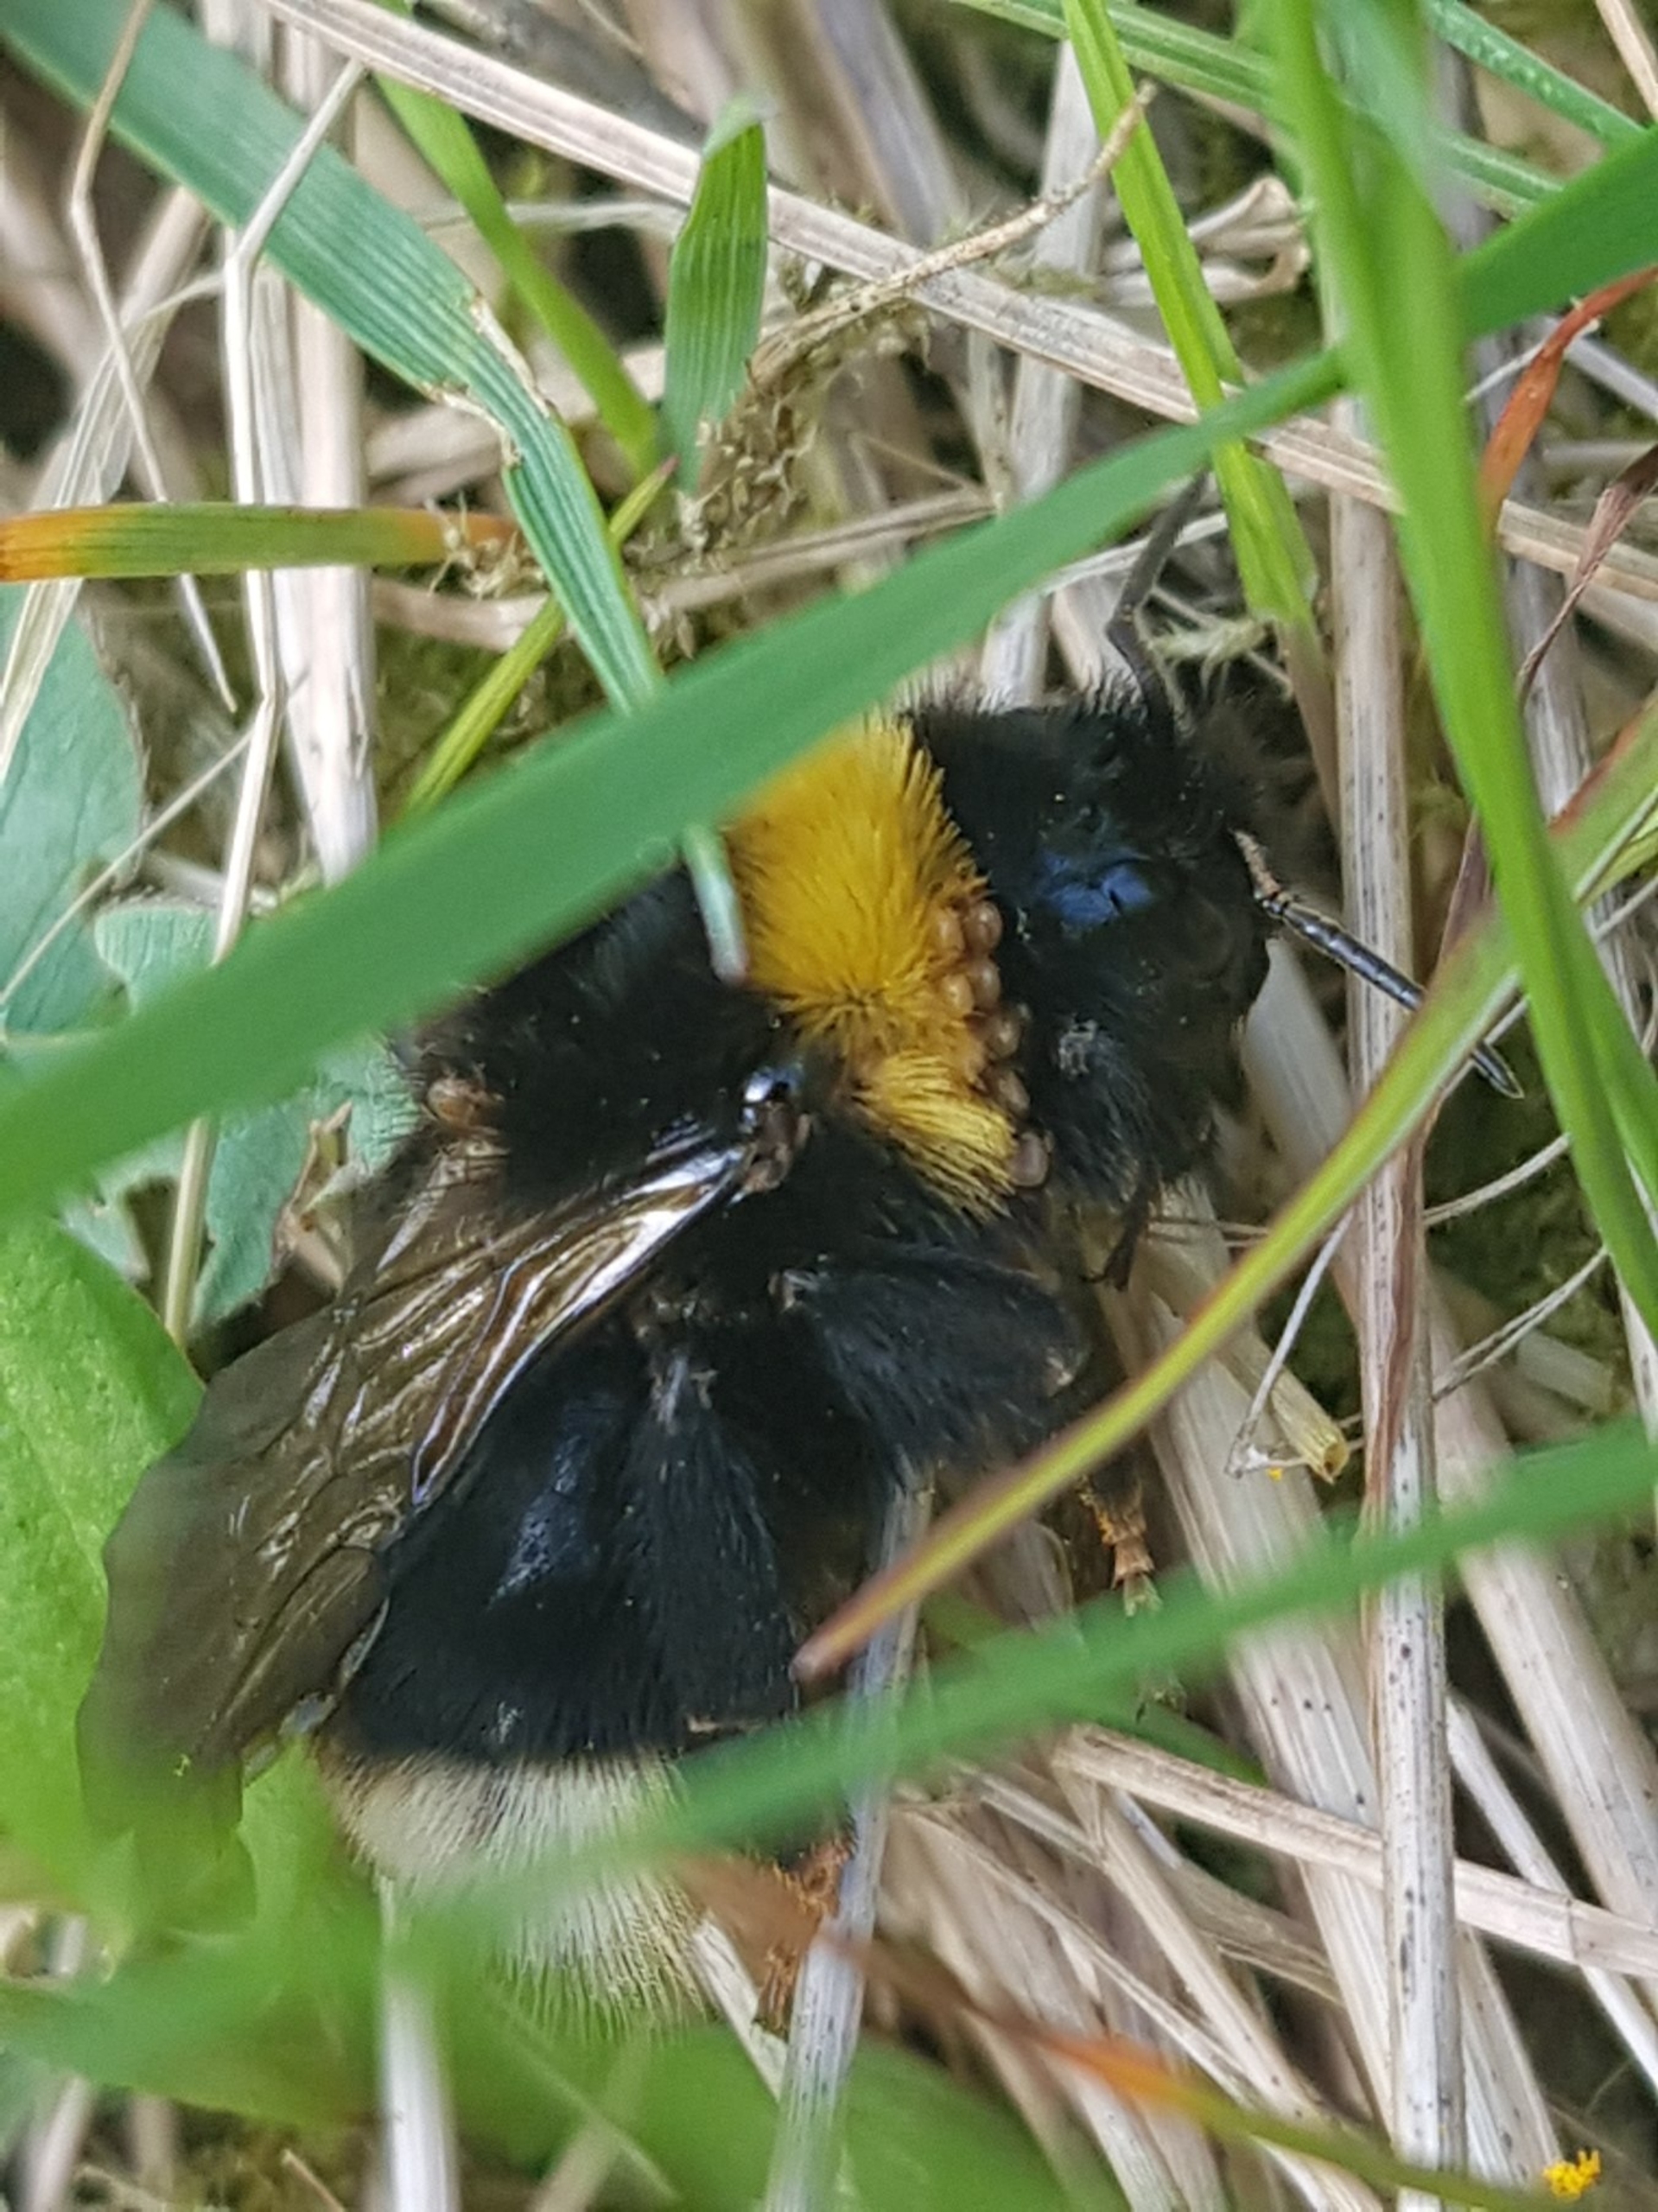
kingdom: Animalia
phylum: Arthropoda
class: Insecta
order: Hymenoptera
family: Apidae
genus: Bombus
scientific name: Bombus
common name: Humlebier
